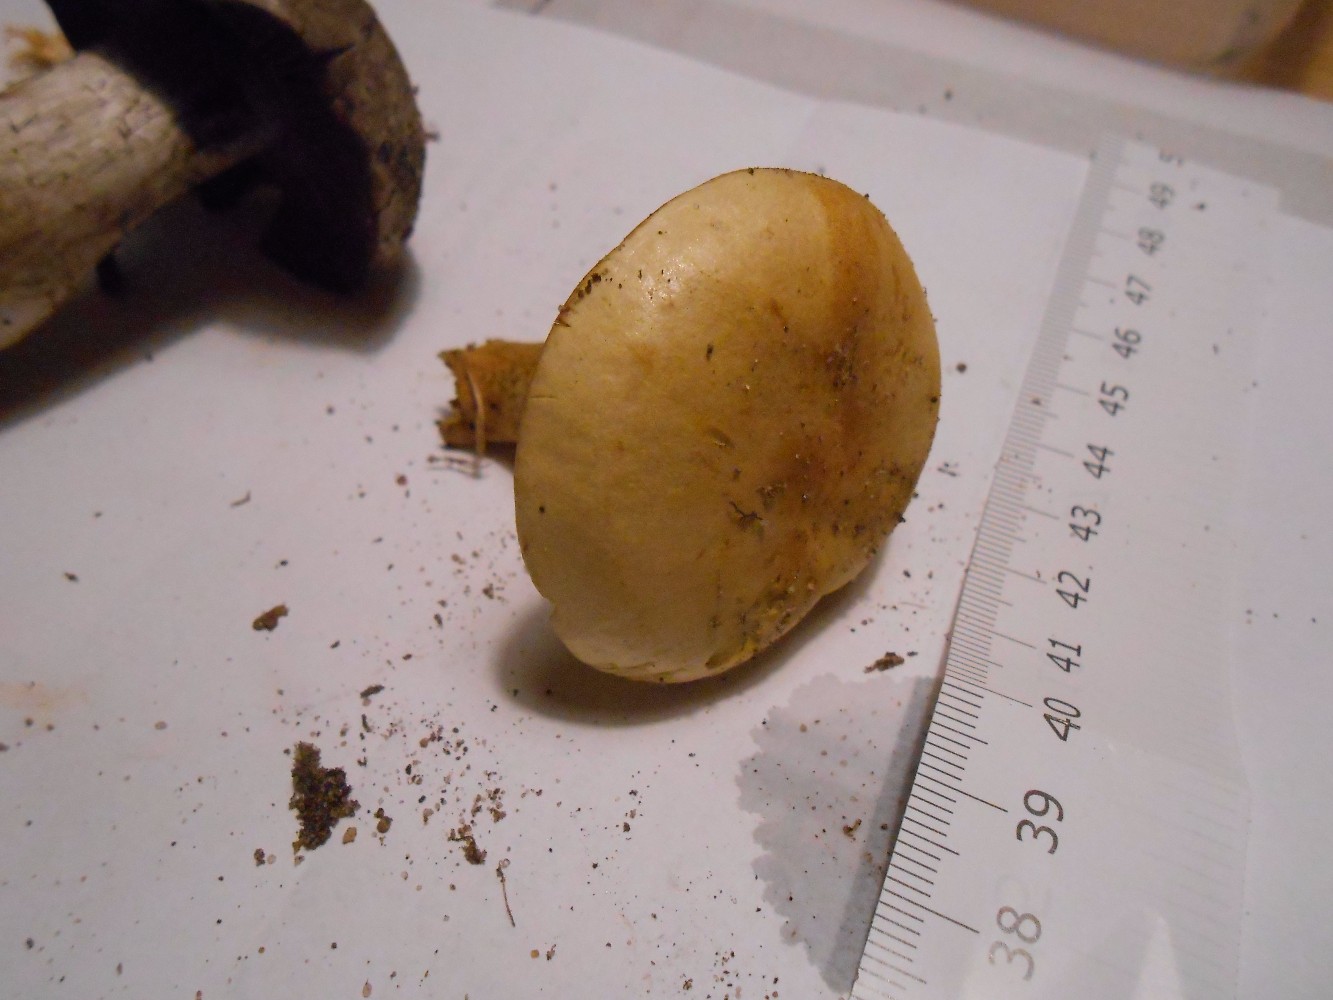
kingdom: Fungi
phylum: Basidiomycota
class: Agaricomycetes
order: Agaricales
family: Tricholomataceae
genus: Tricholoma
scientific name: Tricholoma sulphureum
